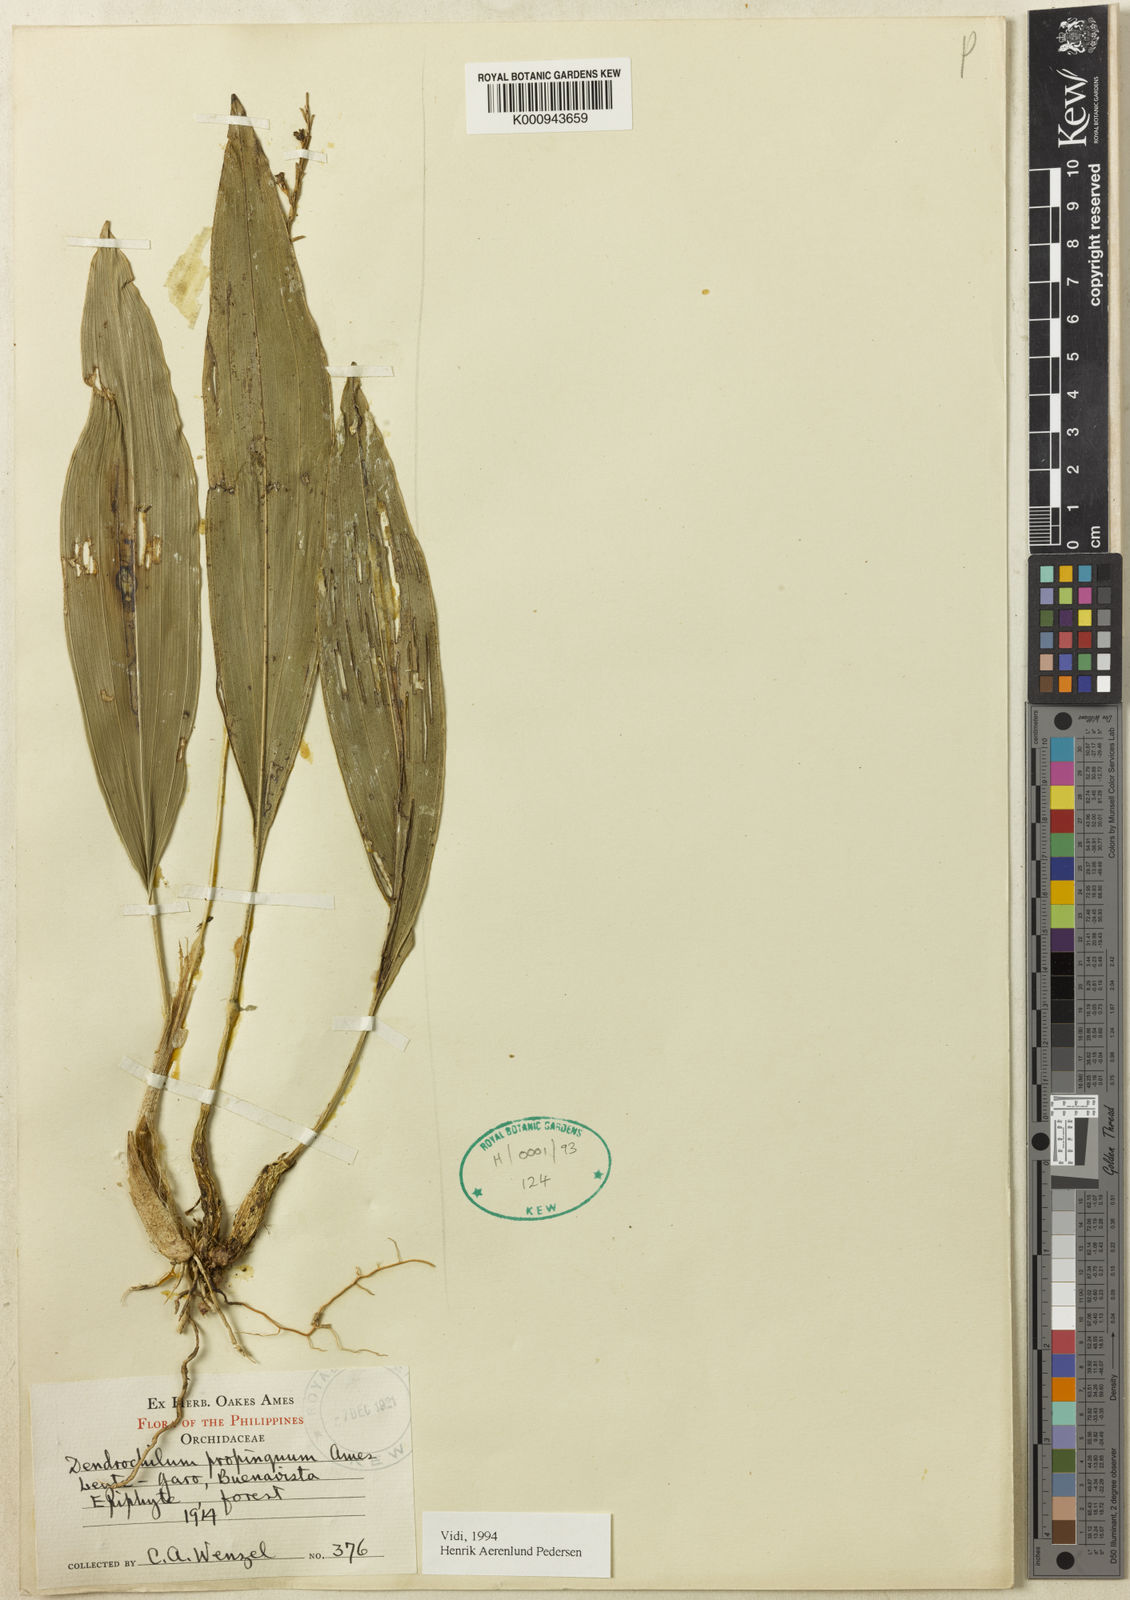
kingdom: Plantae
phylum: Tracheophyta
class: Liliopsida
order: Asparagales
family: Orchidaceae
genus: Coelogyne
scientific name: Coelogyne propinqua
